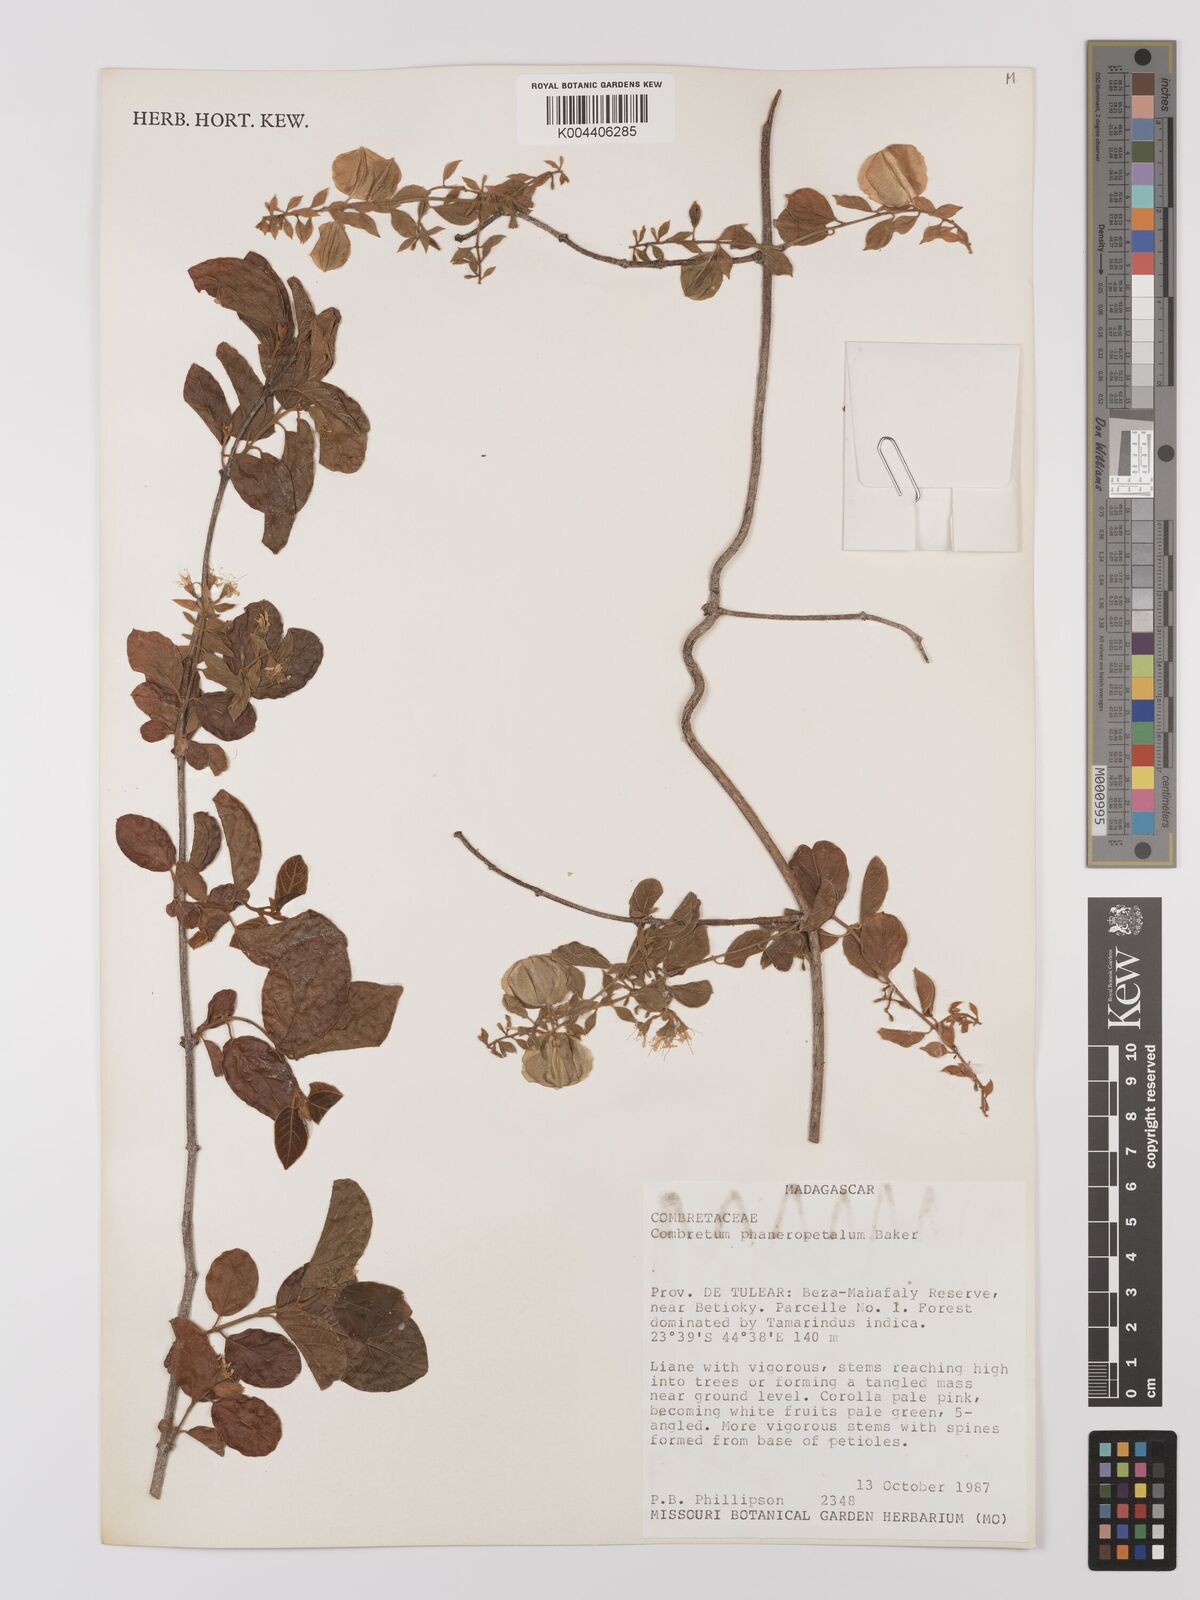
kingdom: Plantae
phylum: Tracheophyta
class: Magnoliopsida
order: Myrtales
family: Combretaceae
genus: Combretum
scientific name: Combretum albiflorum
